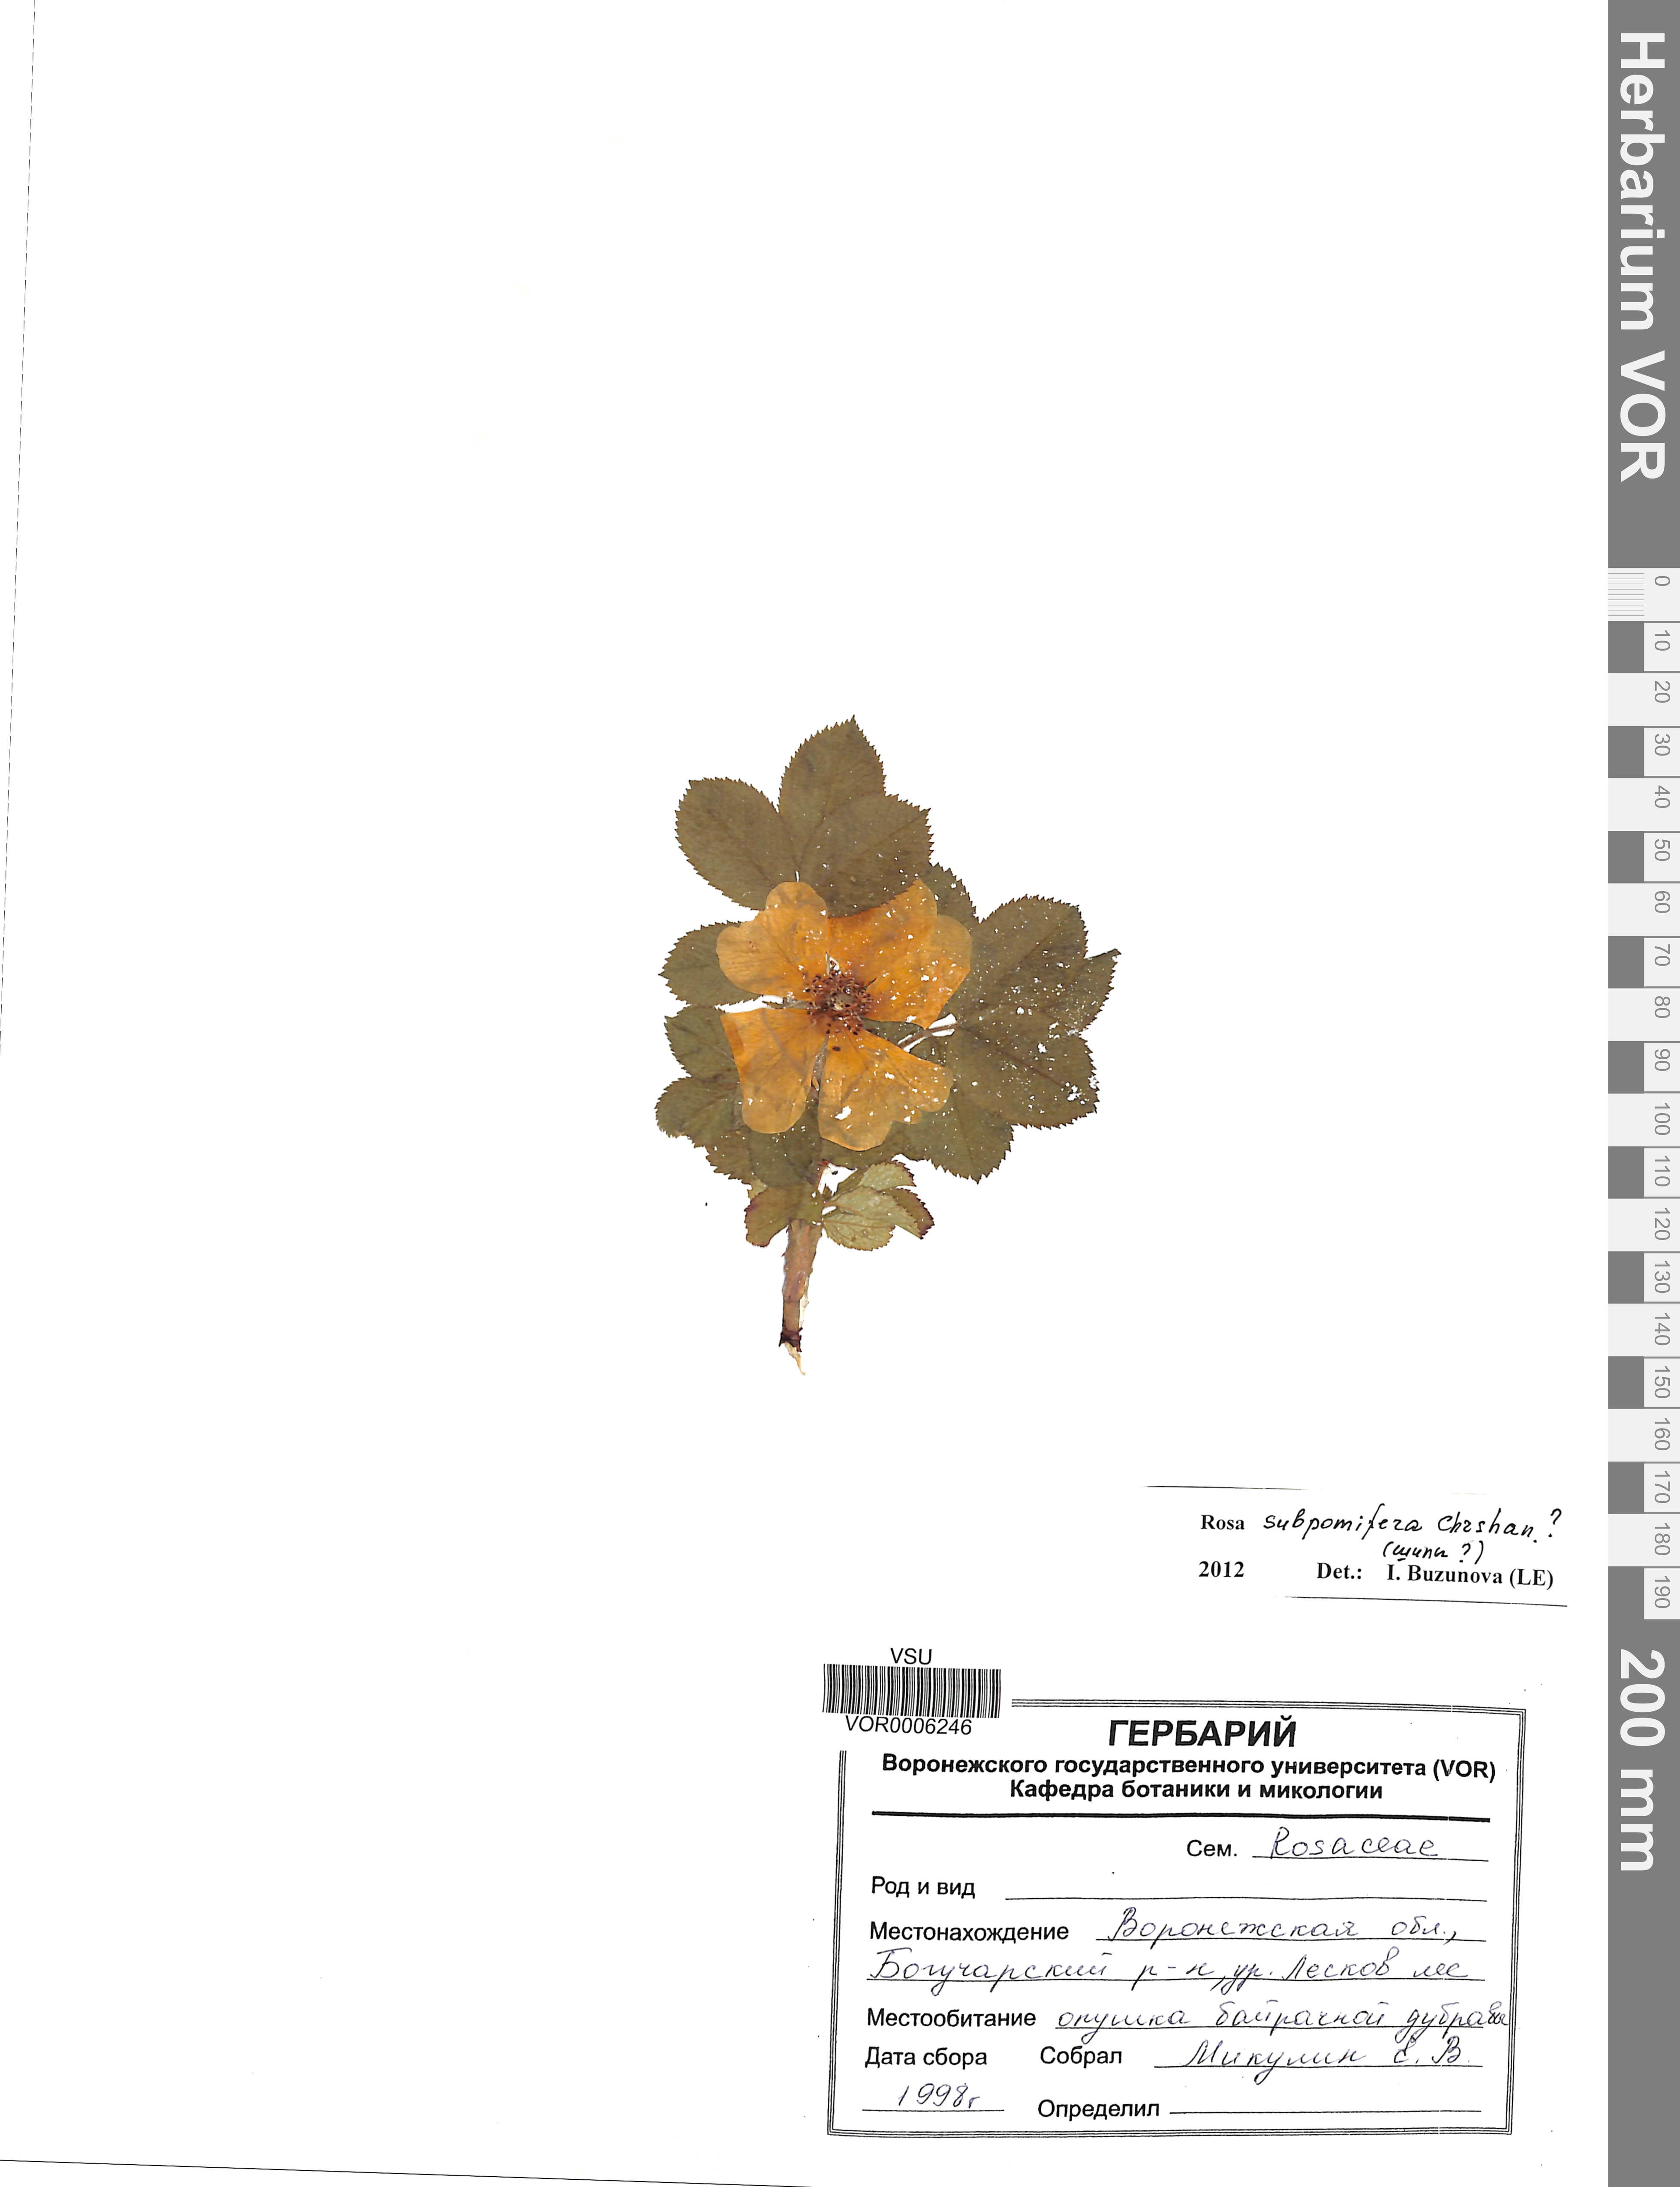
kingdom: Plantae
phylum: Tracheophyta
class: Magnoliopsida
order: Rosales
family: Rosaceae
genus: Rosa
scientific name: Rosa subpomifera
